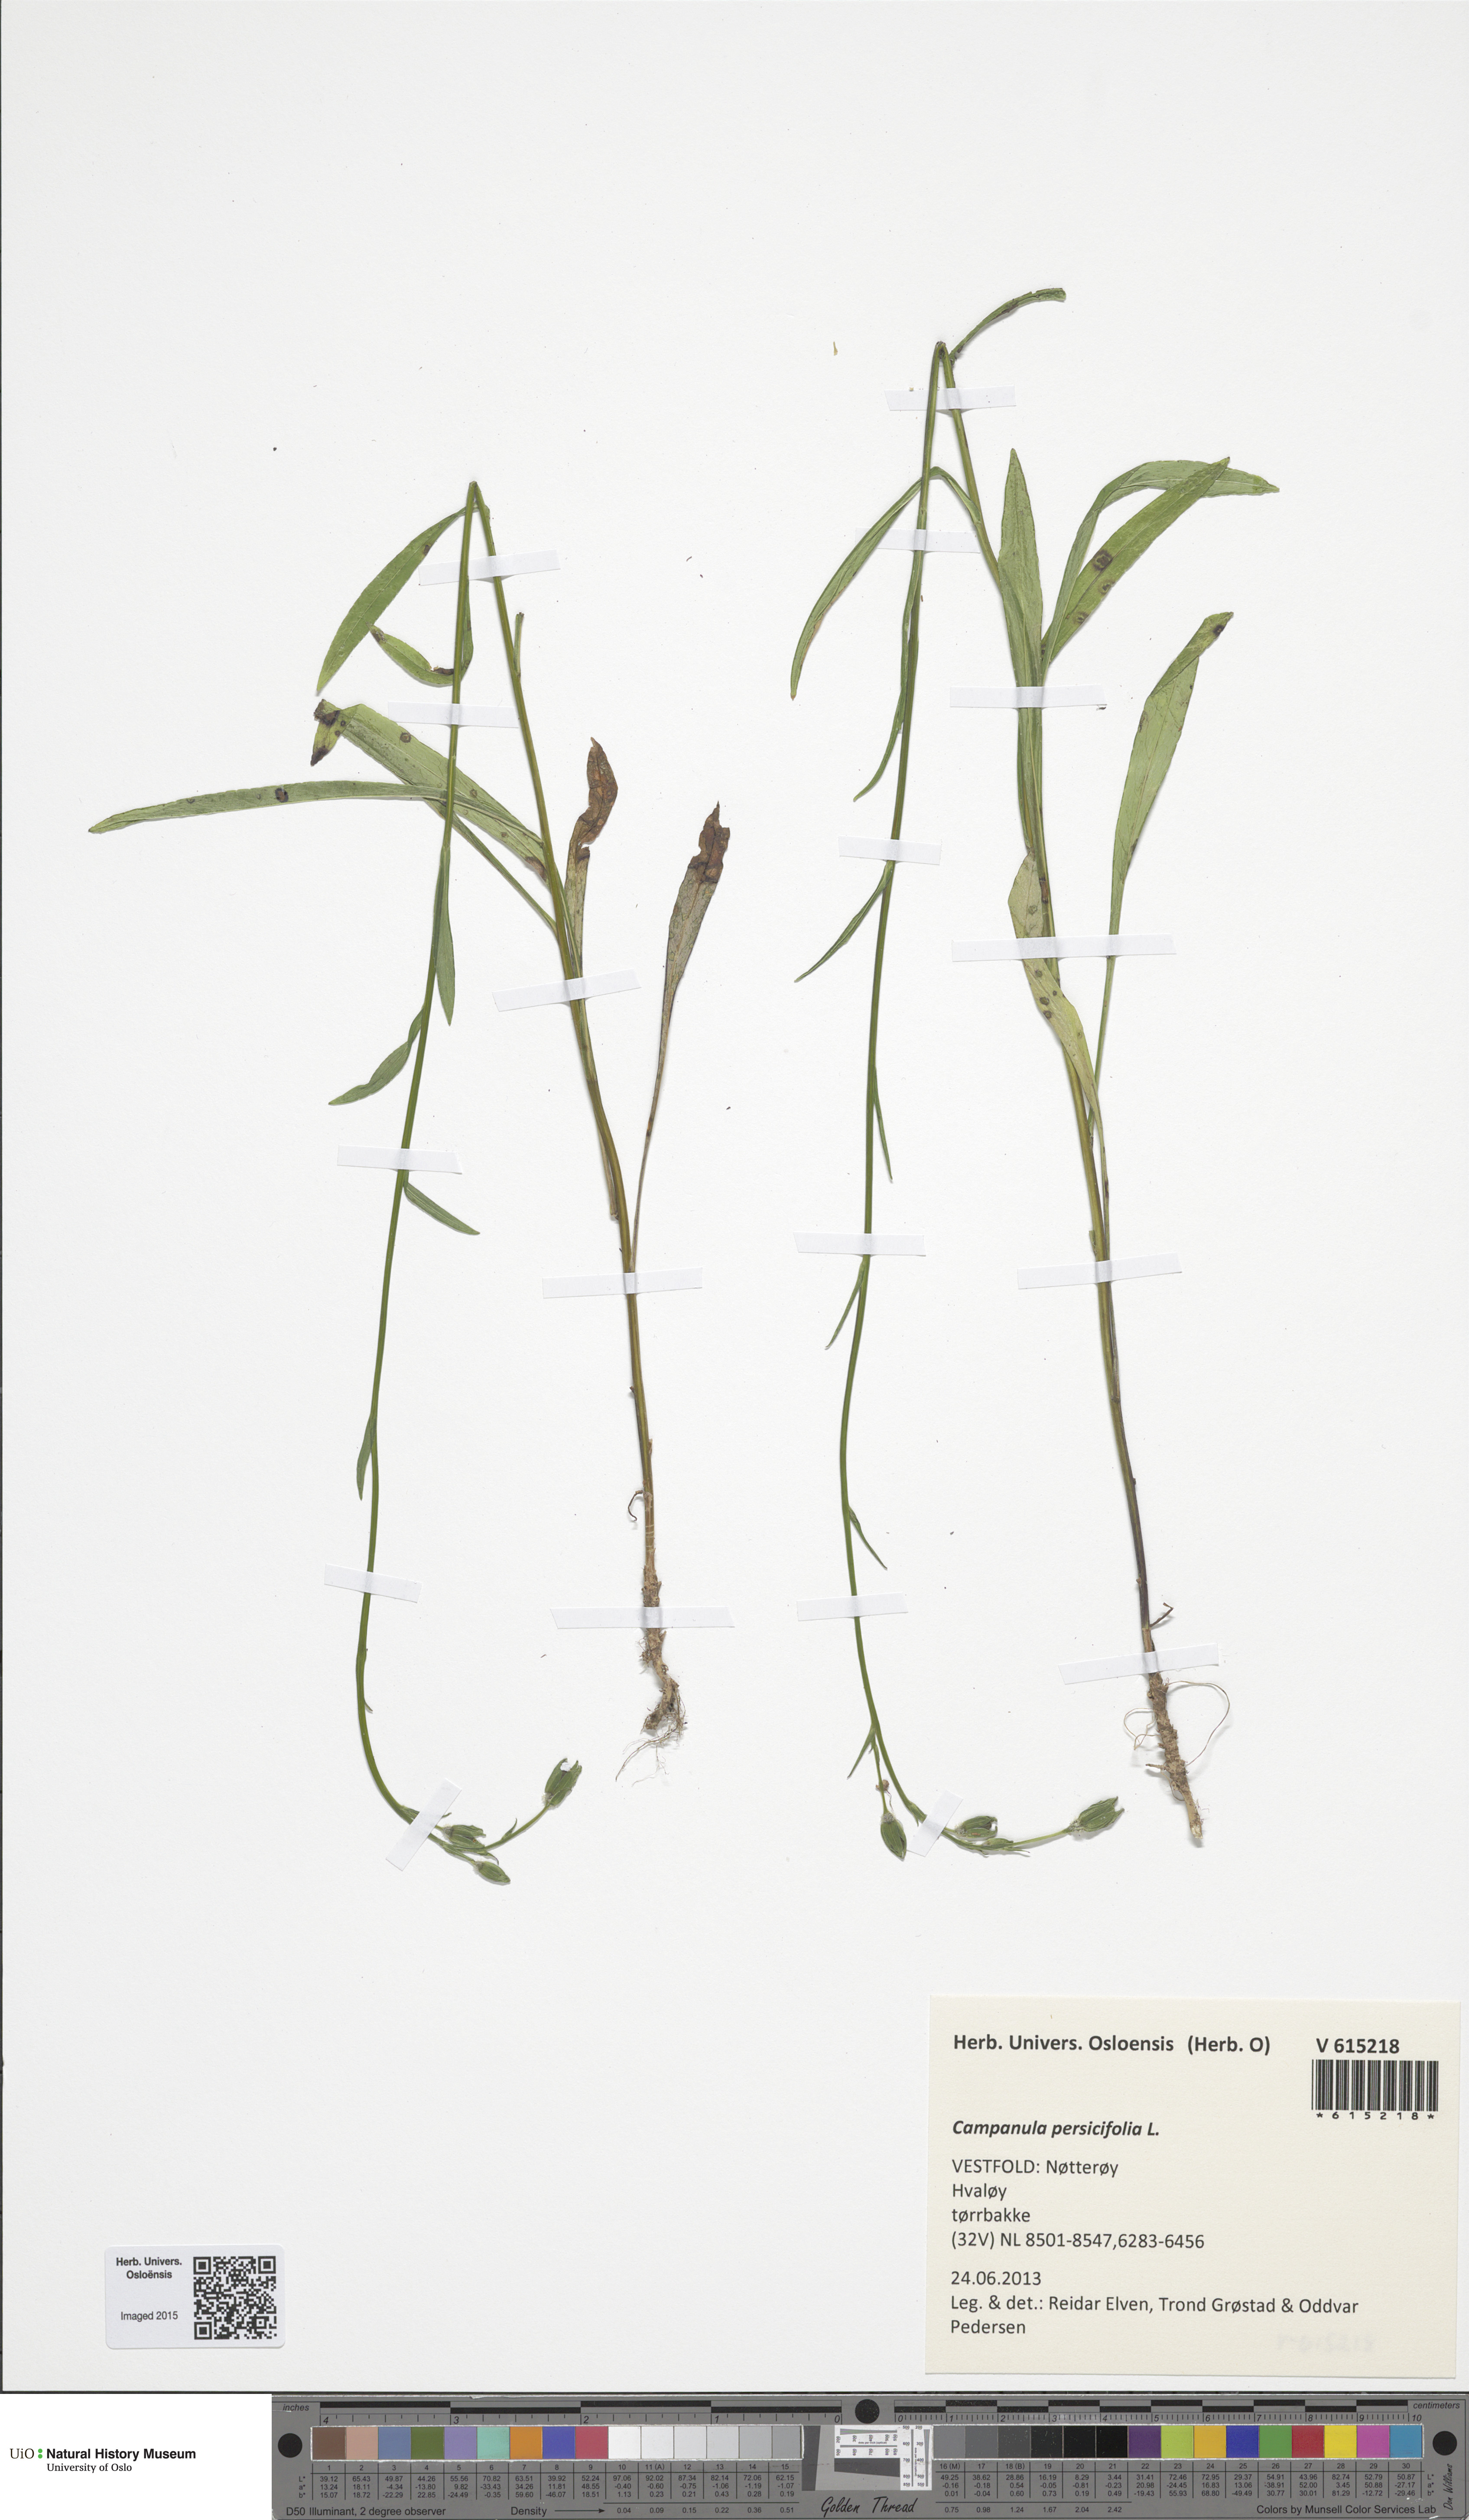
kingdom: Plantae
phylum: Tracheophyta
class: Magnoliopsida
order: Asterales
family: Campanulaceae
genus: Campanula
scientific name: Campanula persicifolia
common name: Peach-leaved bellflower
